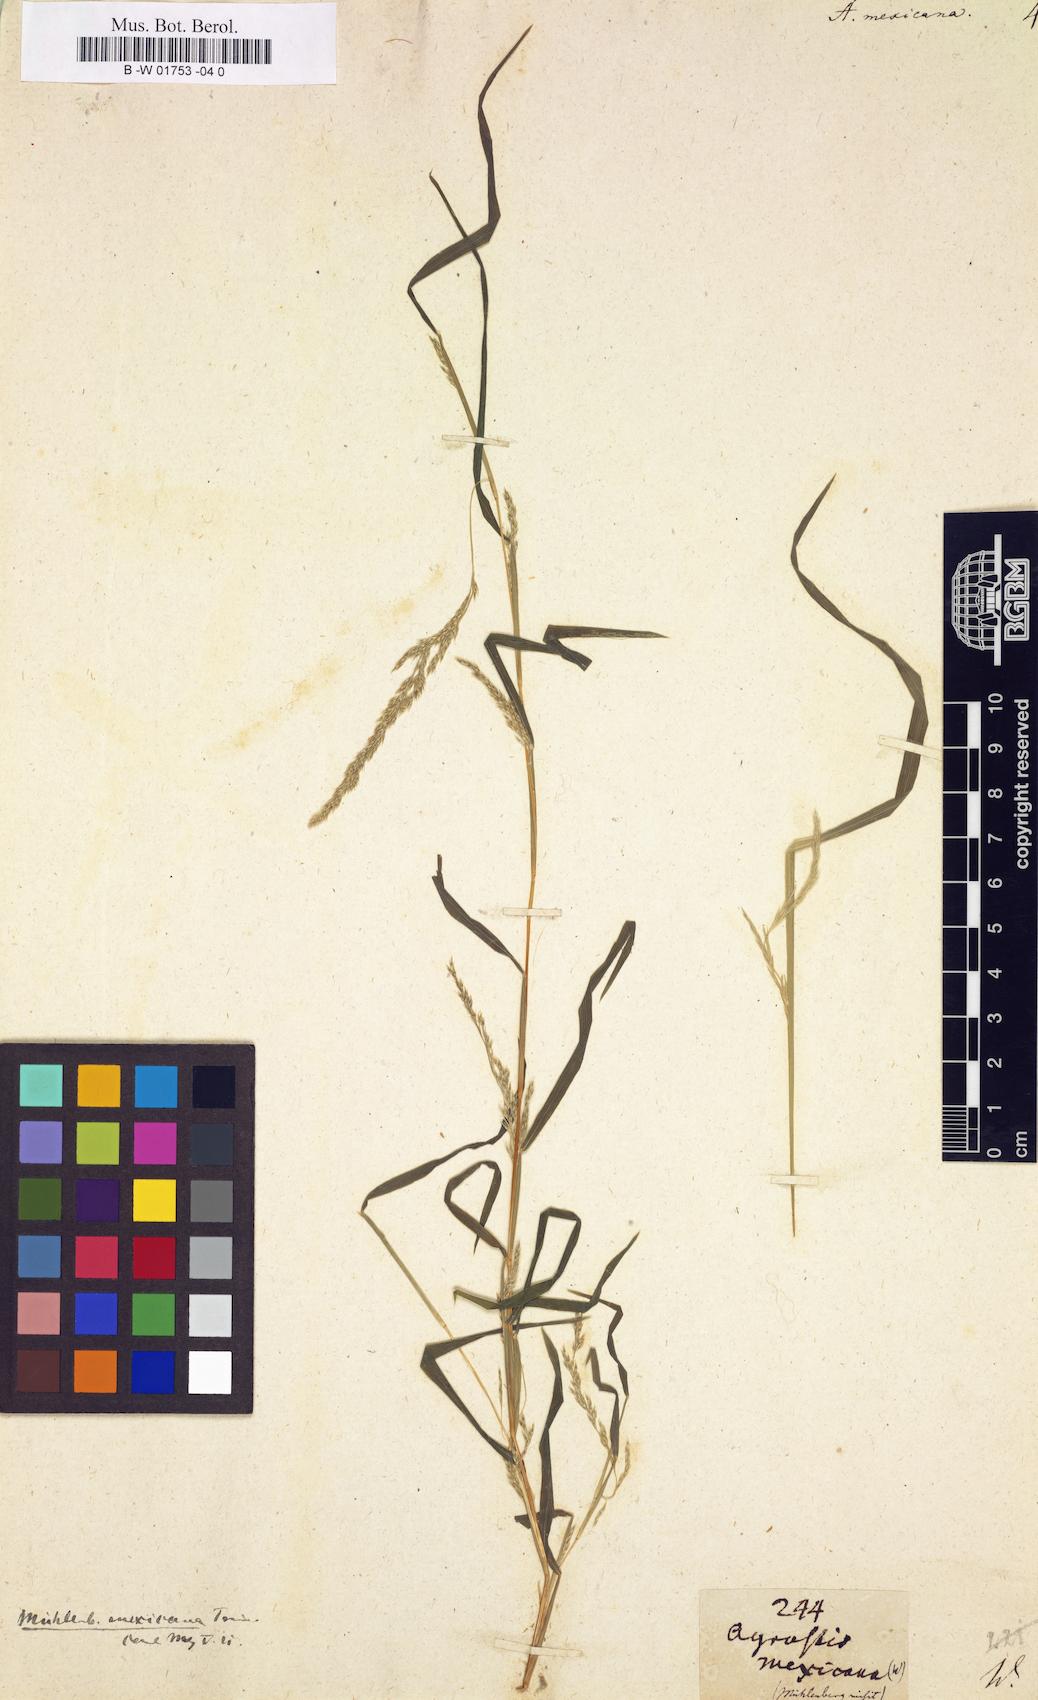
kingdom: Plantae
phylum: Tracheophyta
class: Liliopsida
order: Poales
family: Poaceae
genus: Agrostis
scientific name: Agrostis mexicana
